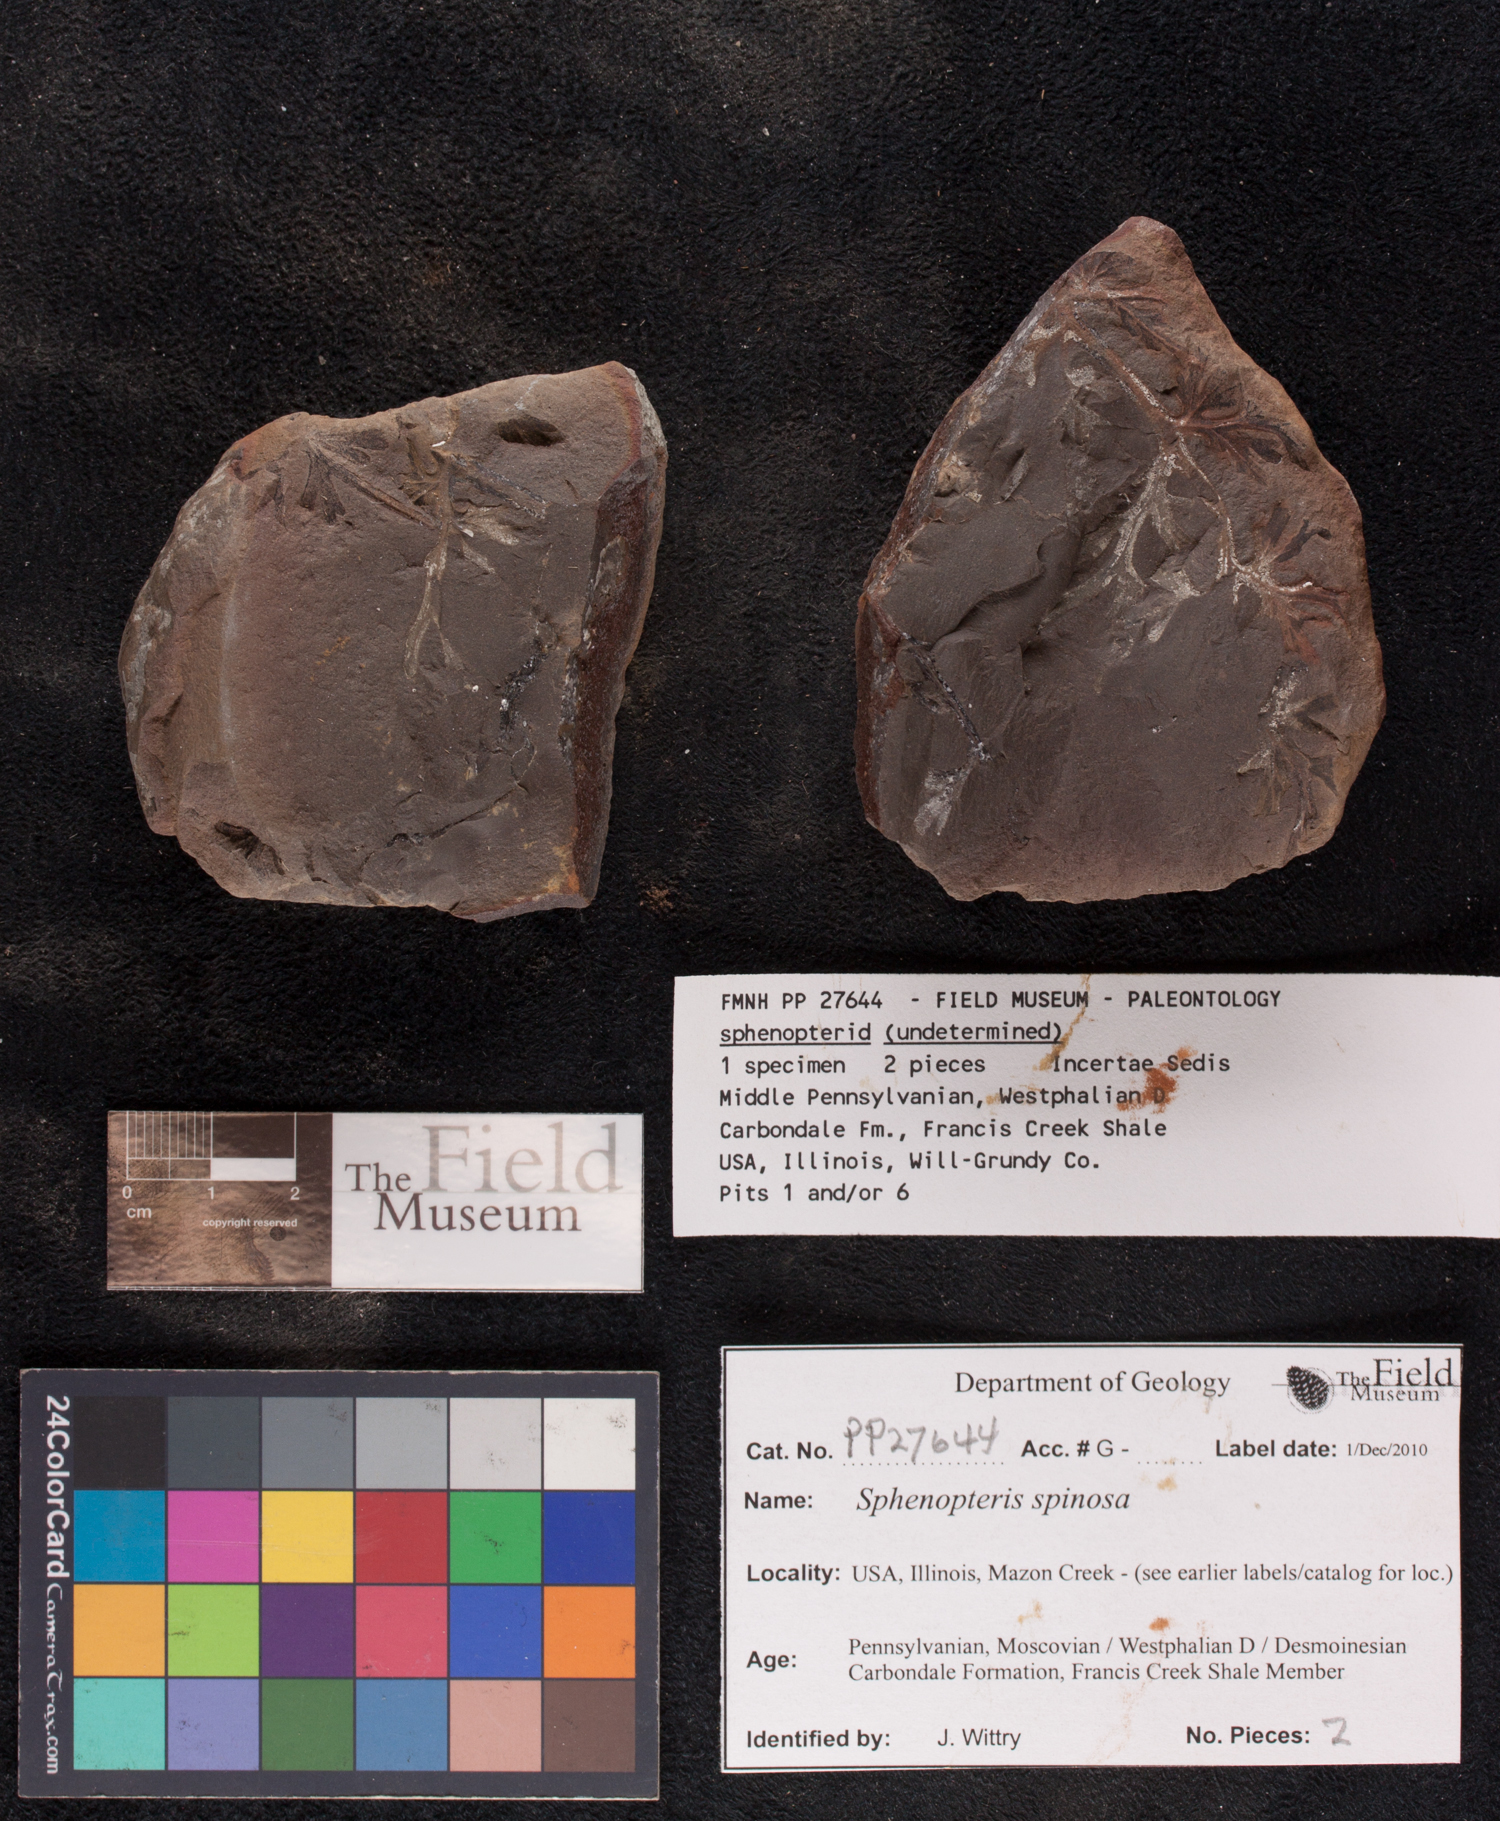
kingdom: Plantae
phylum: Tracheophyta
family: Lyginopteridaceae
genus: Sphenopteris
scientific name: Sphenopteris
